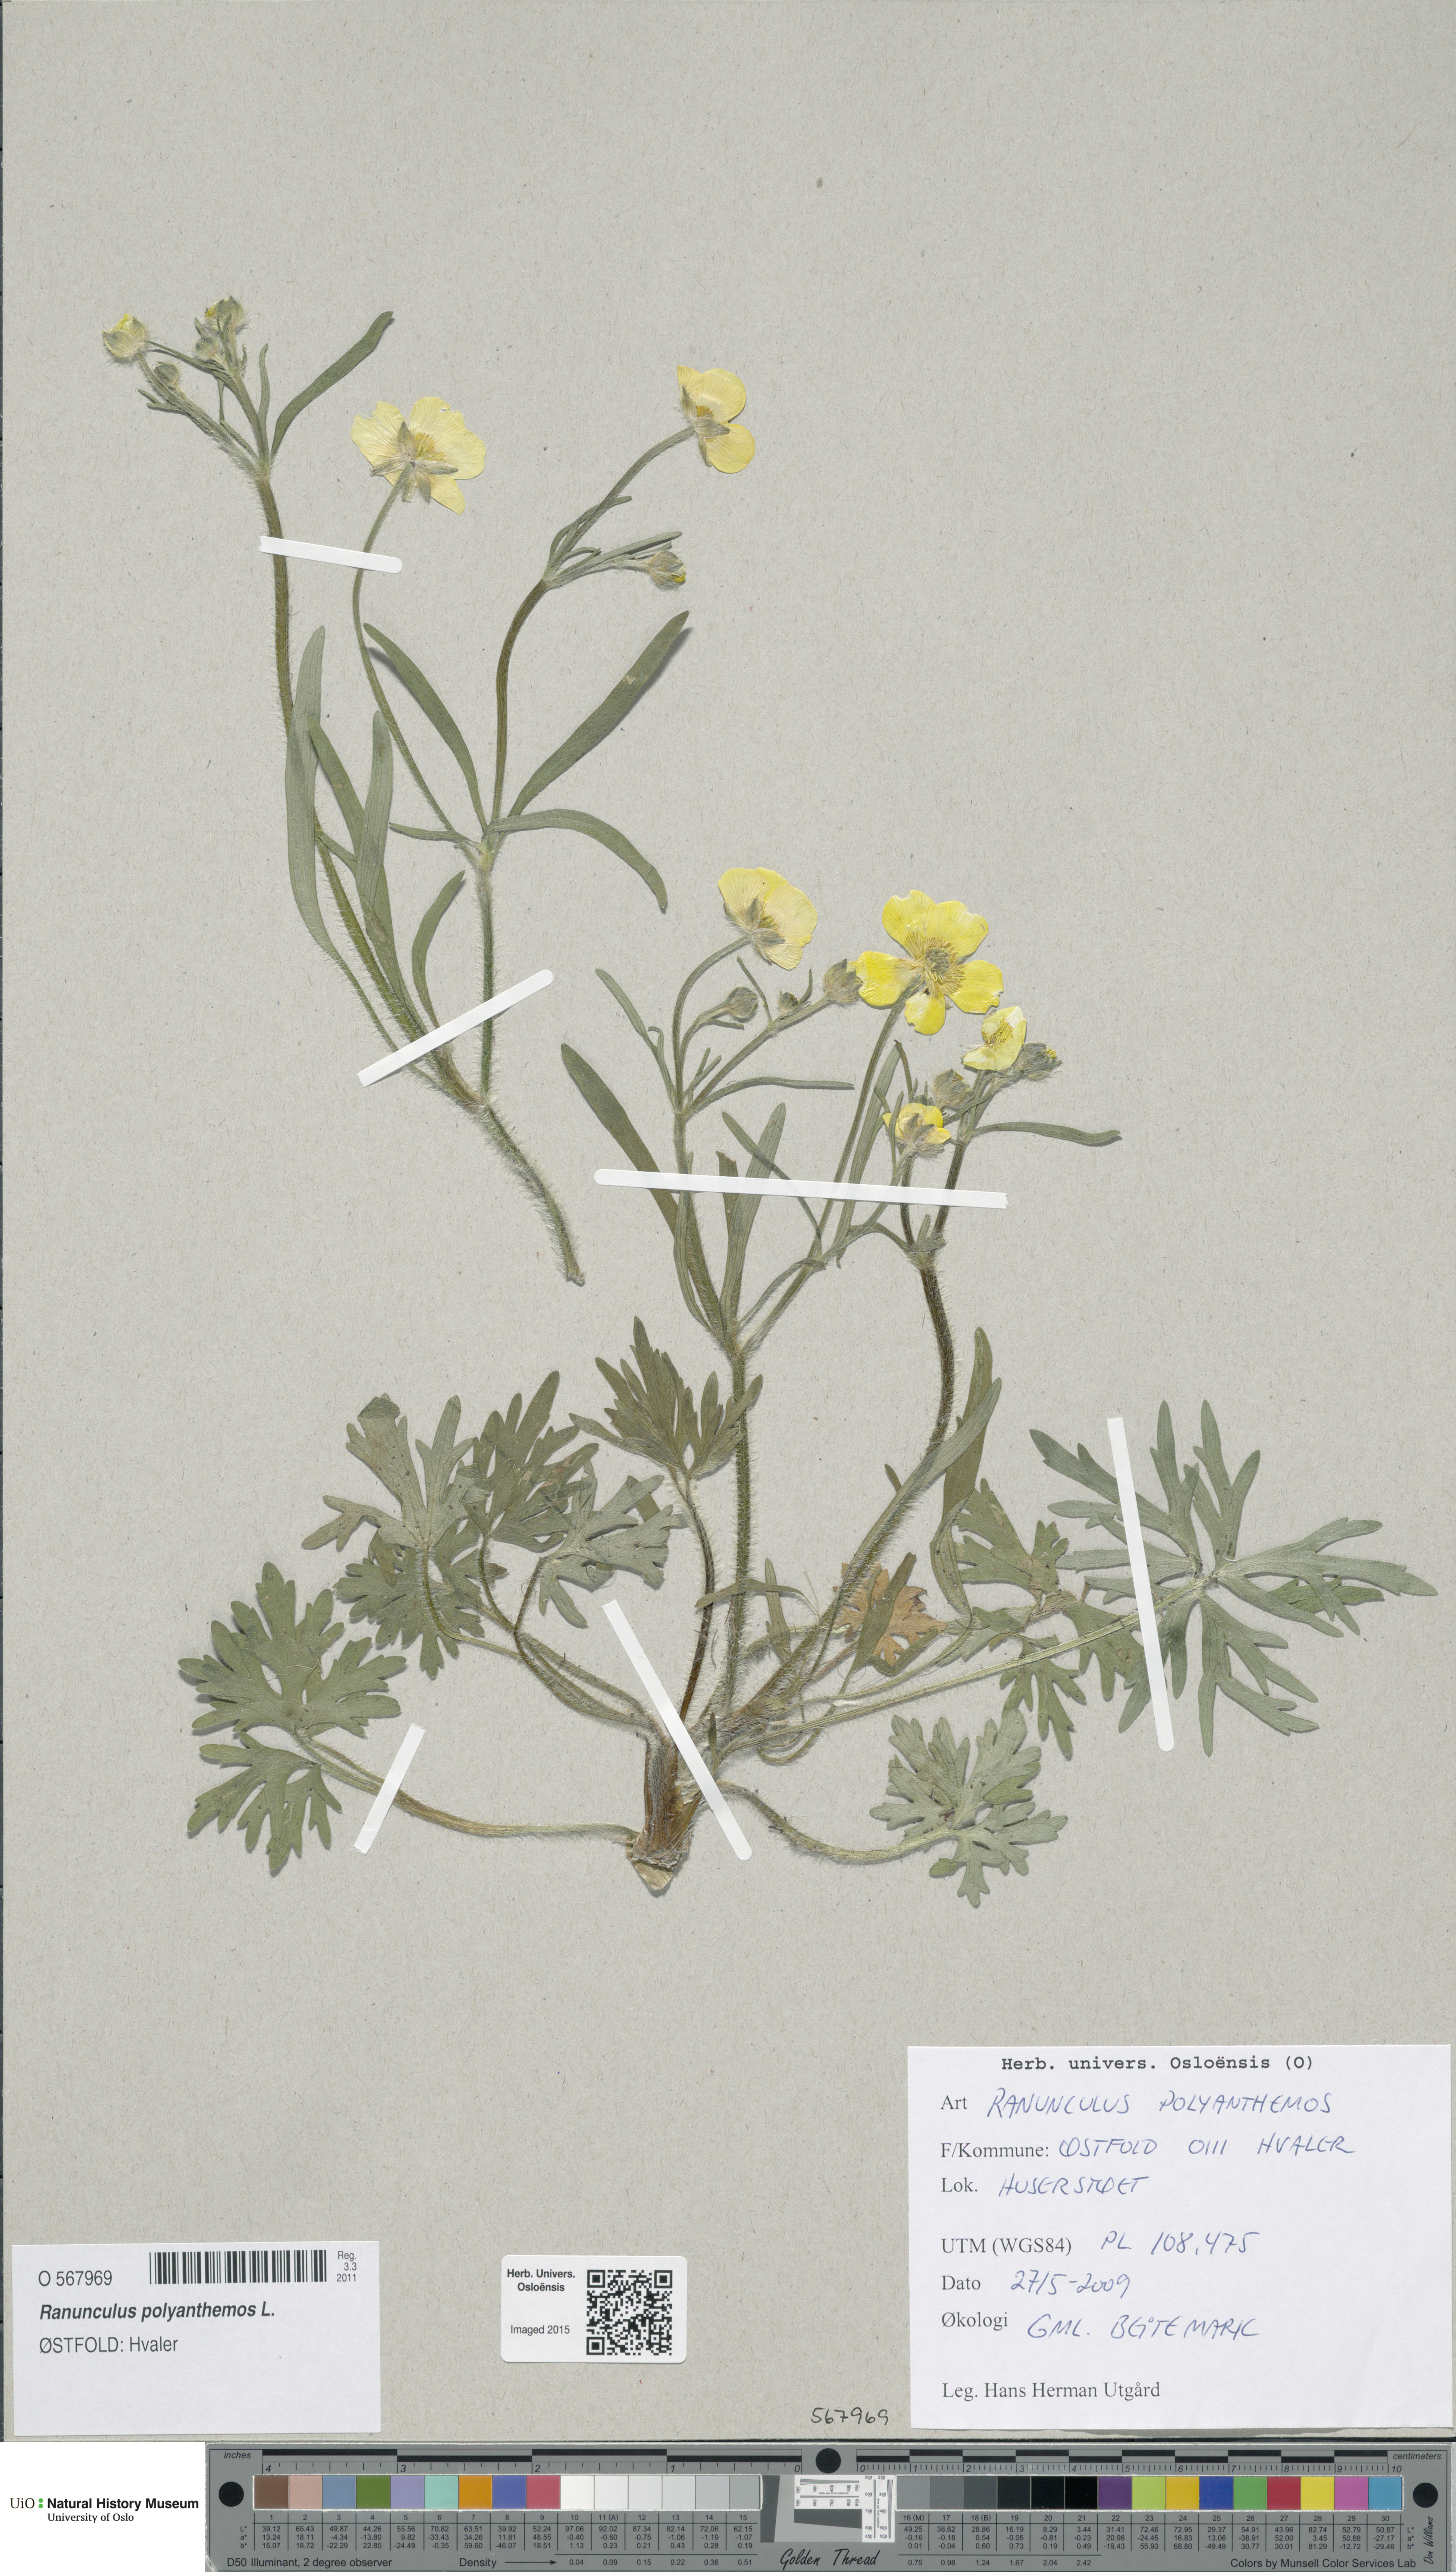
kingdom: Plantae
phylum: Tracheophyta
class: Magnoliopsida
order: Ranunculales
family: Ranunculaceae
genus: Ranunculus
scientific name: Ranunculus polyanthemos
